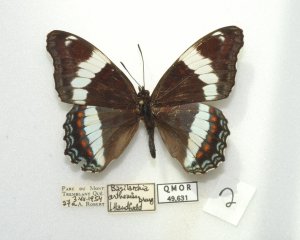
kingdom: Animalia
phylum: Arthropoda
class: Insecta
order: Lepidoptera
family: Nymphalidae
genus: Limenitis
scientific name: Limenitis arthemis
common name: Red-spotted Admiral
